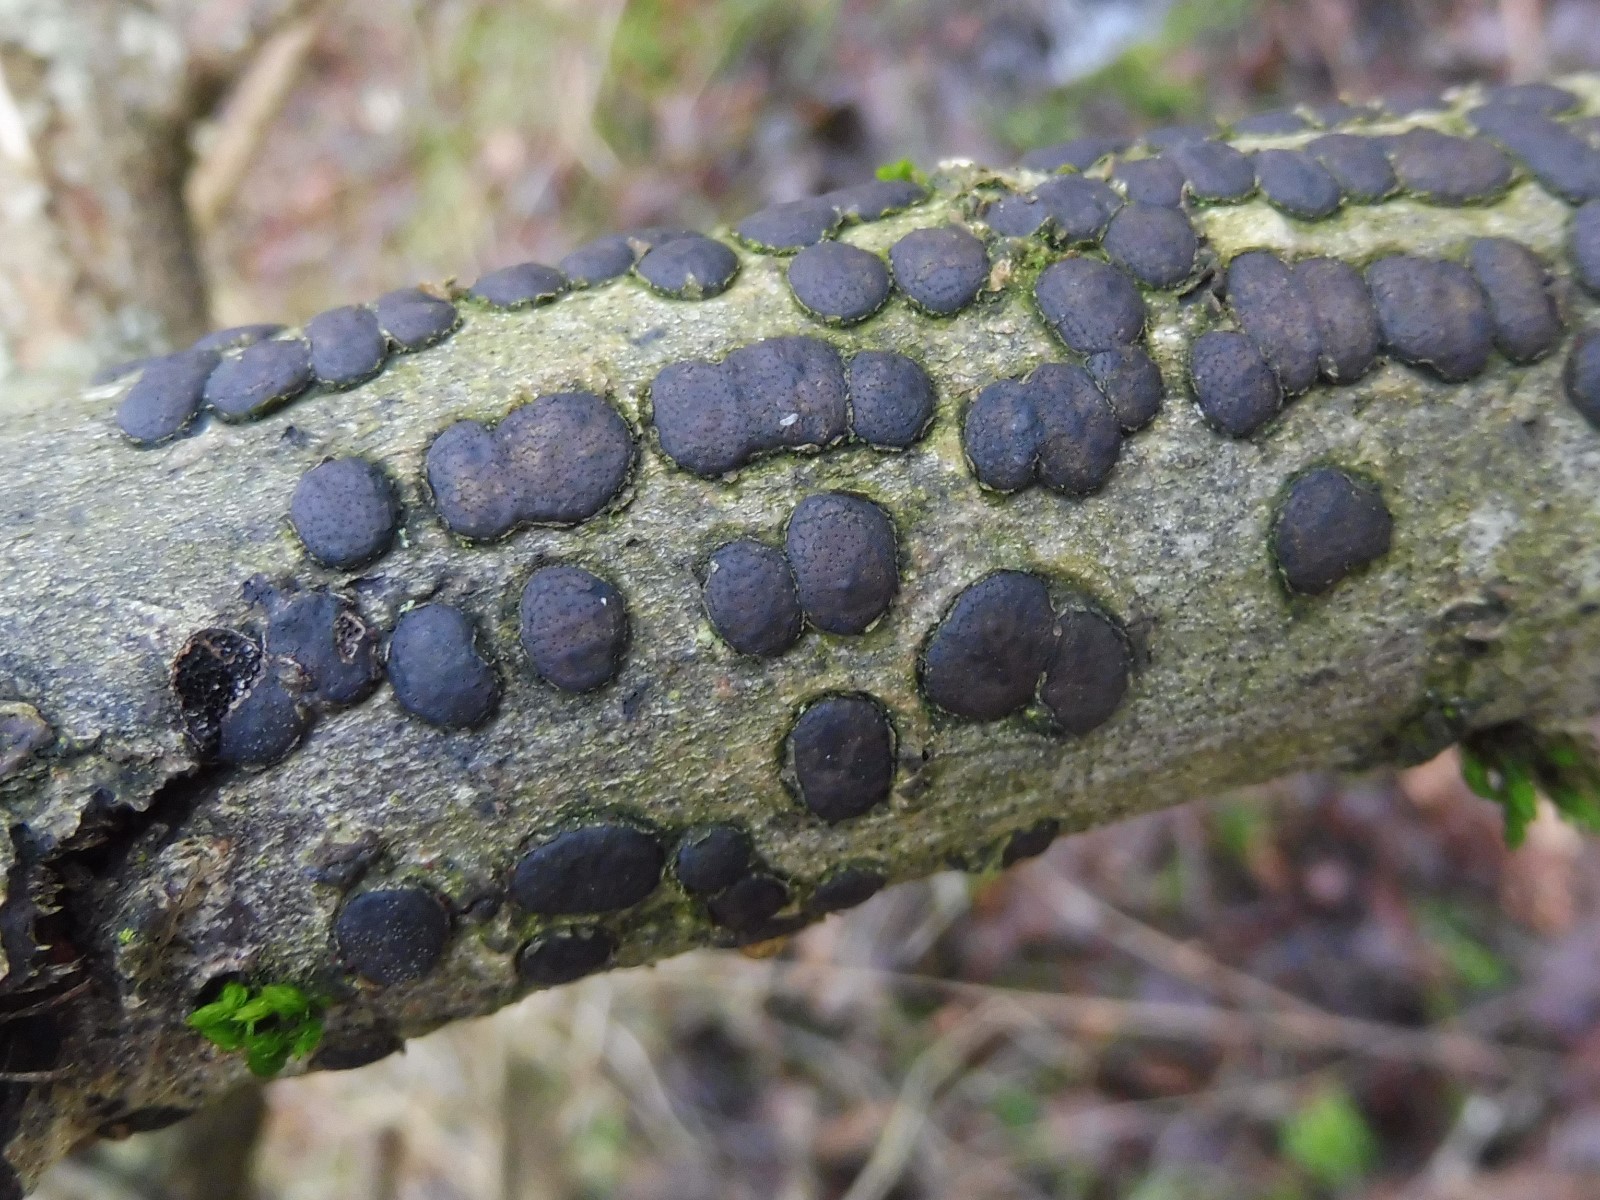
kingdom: Fungi
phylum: Ascomycota
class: Sordariomycetes
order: Xylariales
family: Diatrypaceae
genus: Diatrype
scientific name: Diatrype bullata
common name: pile-kulskorpe
